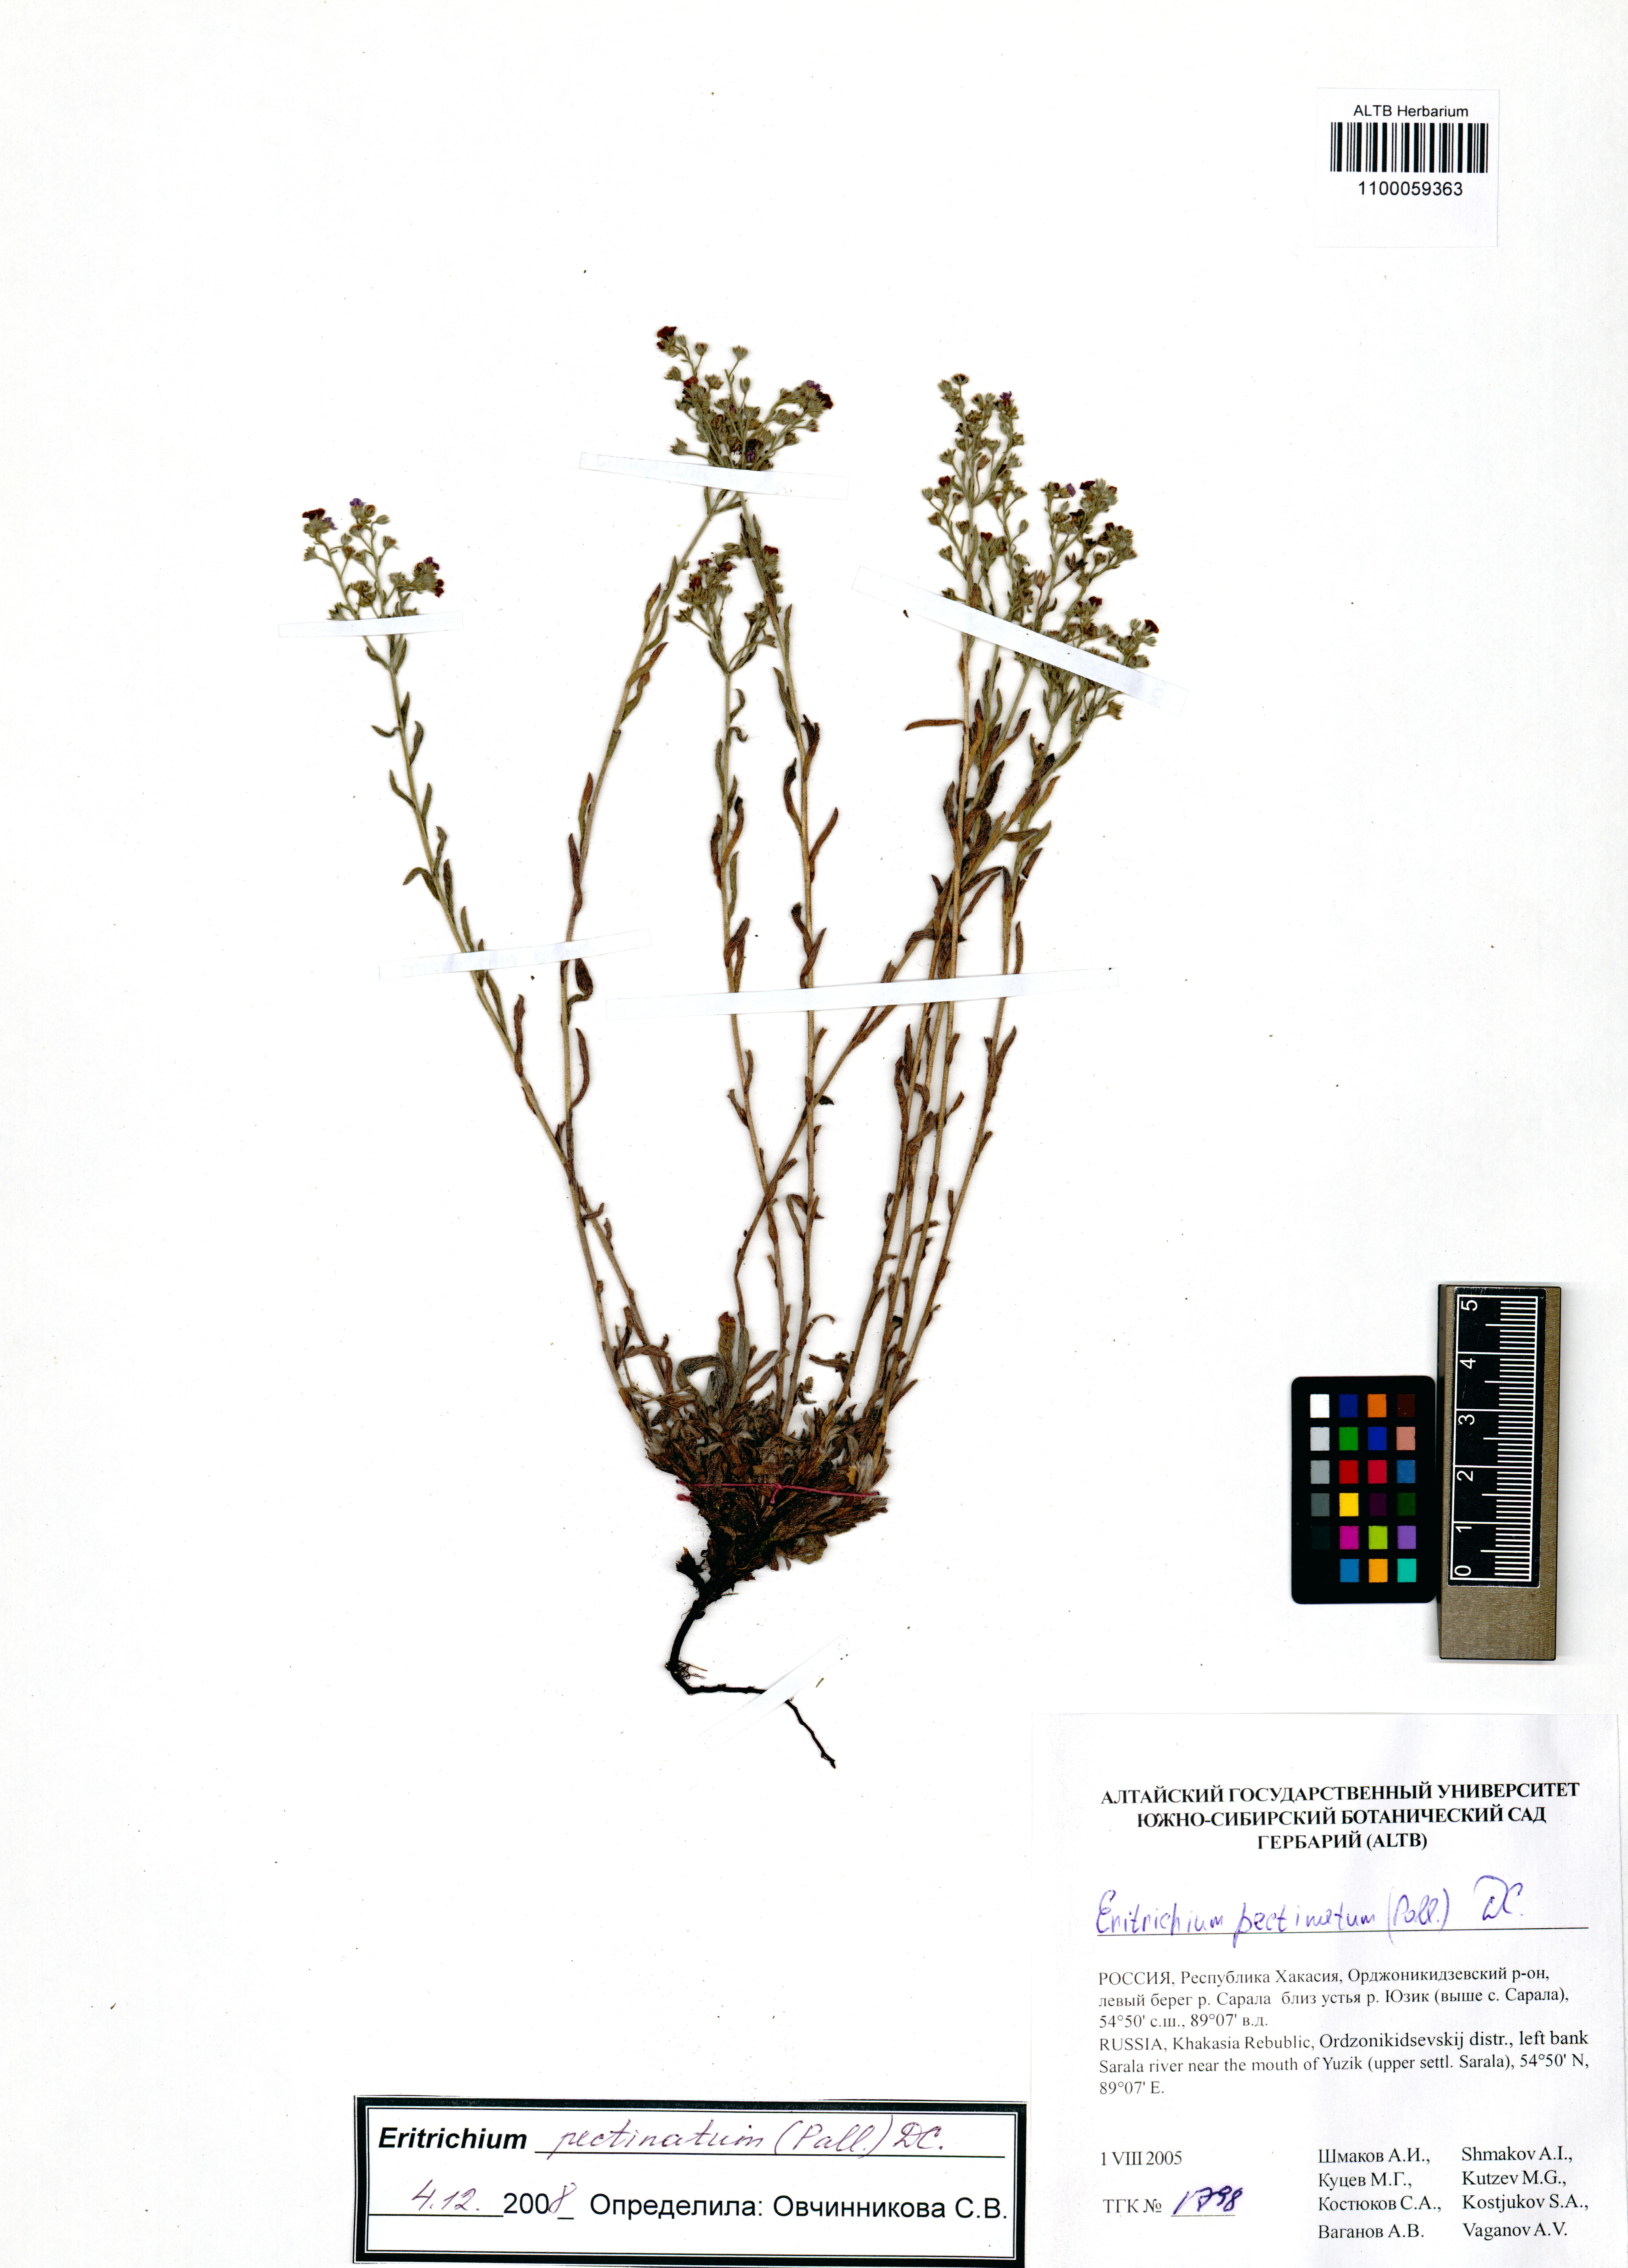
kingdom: Plantae
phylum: Tracheophyta
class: Magnoliopsida
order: Boraginales
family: Boraginaceae
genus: Eritrichium
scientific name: Eritrichium pectinatum
